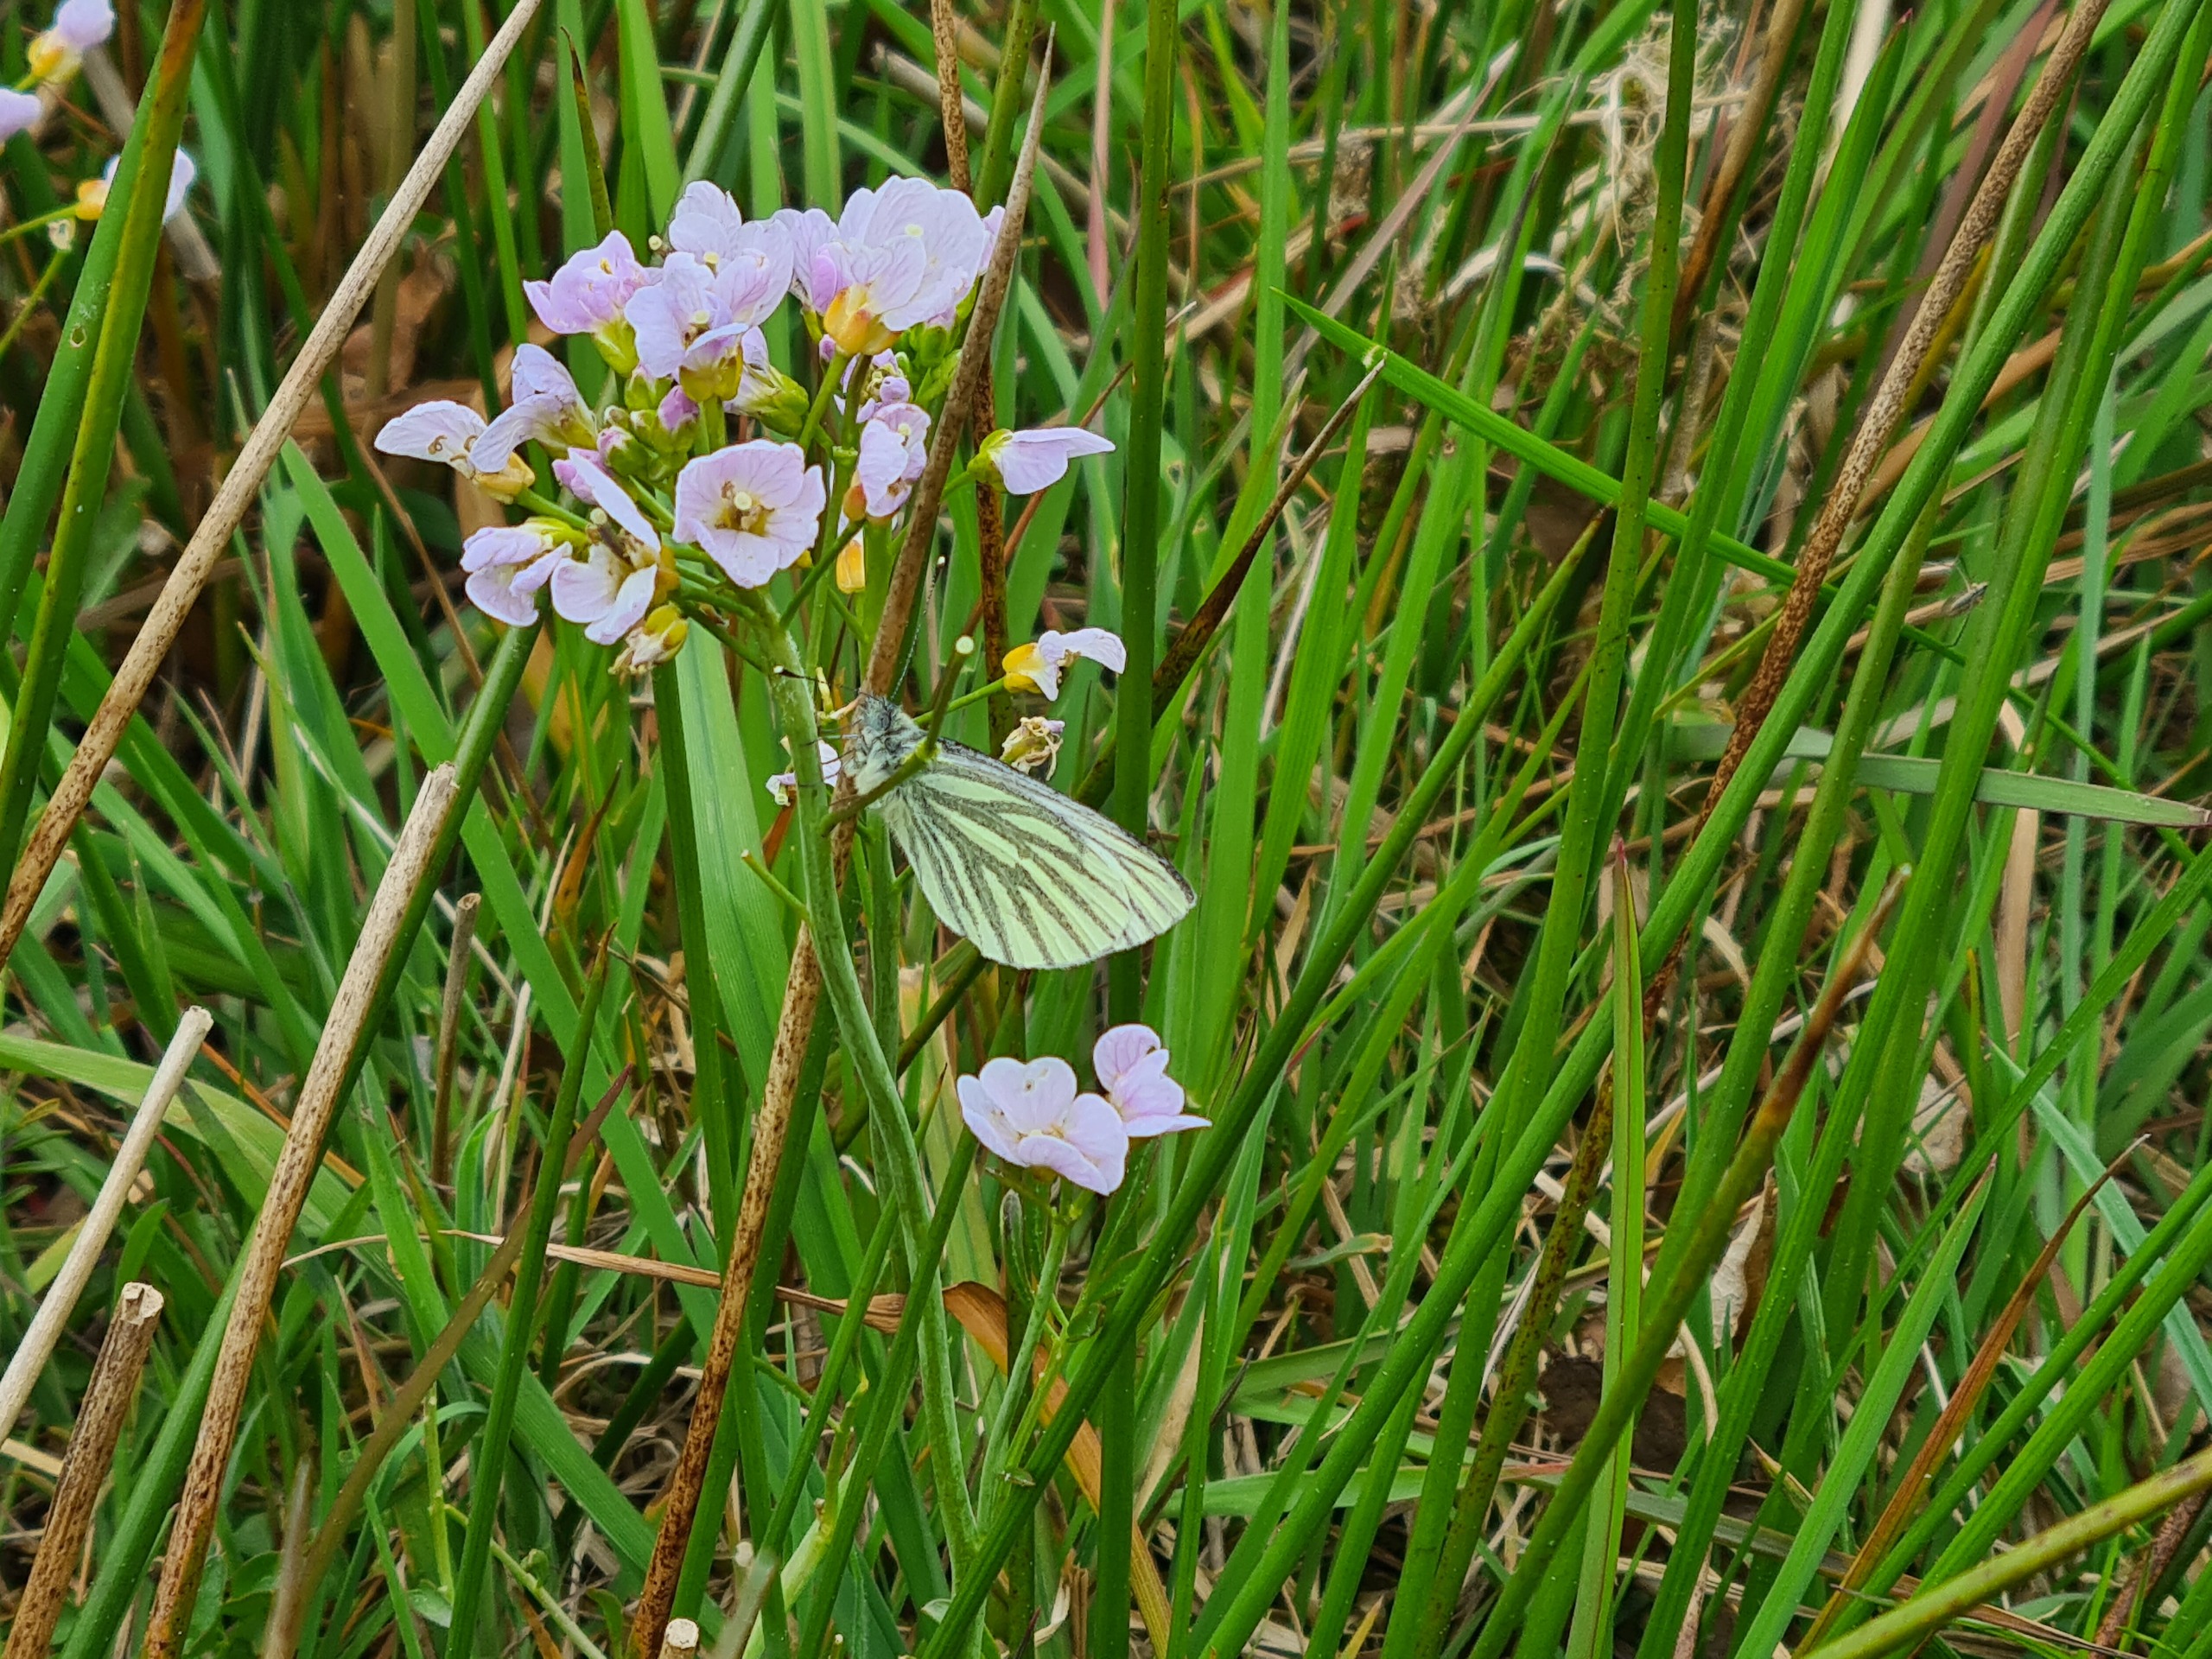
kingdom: Animalia
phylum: Arthropoda
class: Insecta
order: Lepidoptera
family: Pieridae
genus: Pieris
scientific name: Pieris napi
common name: Grønåret kålsommerfugl
